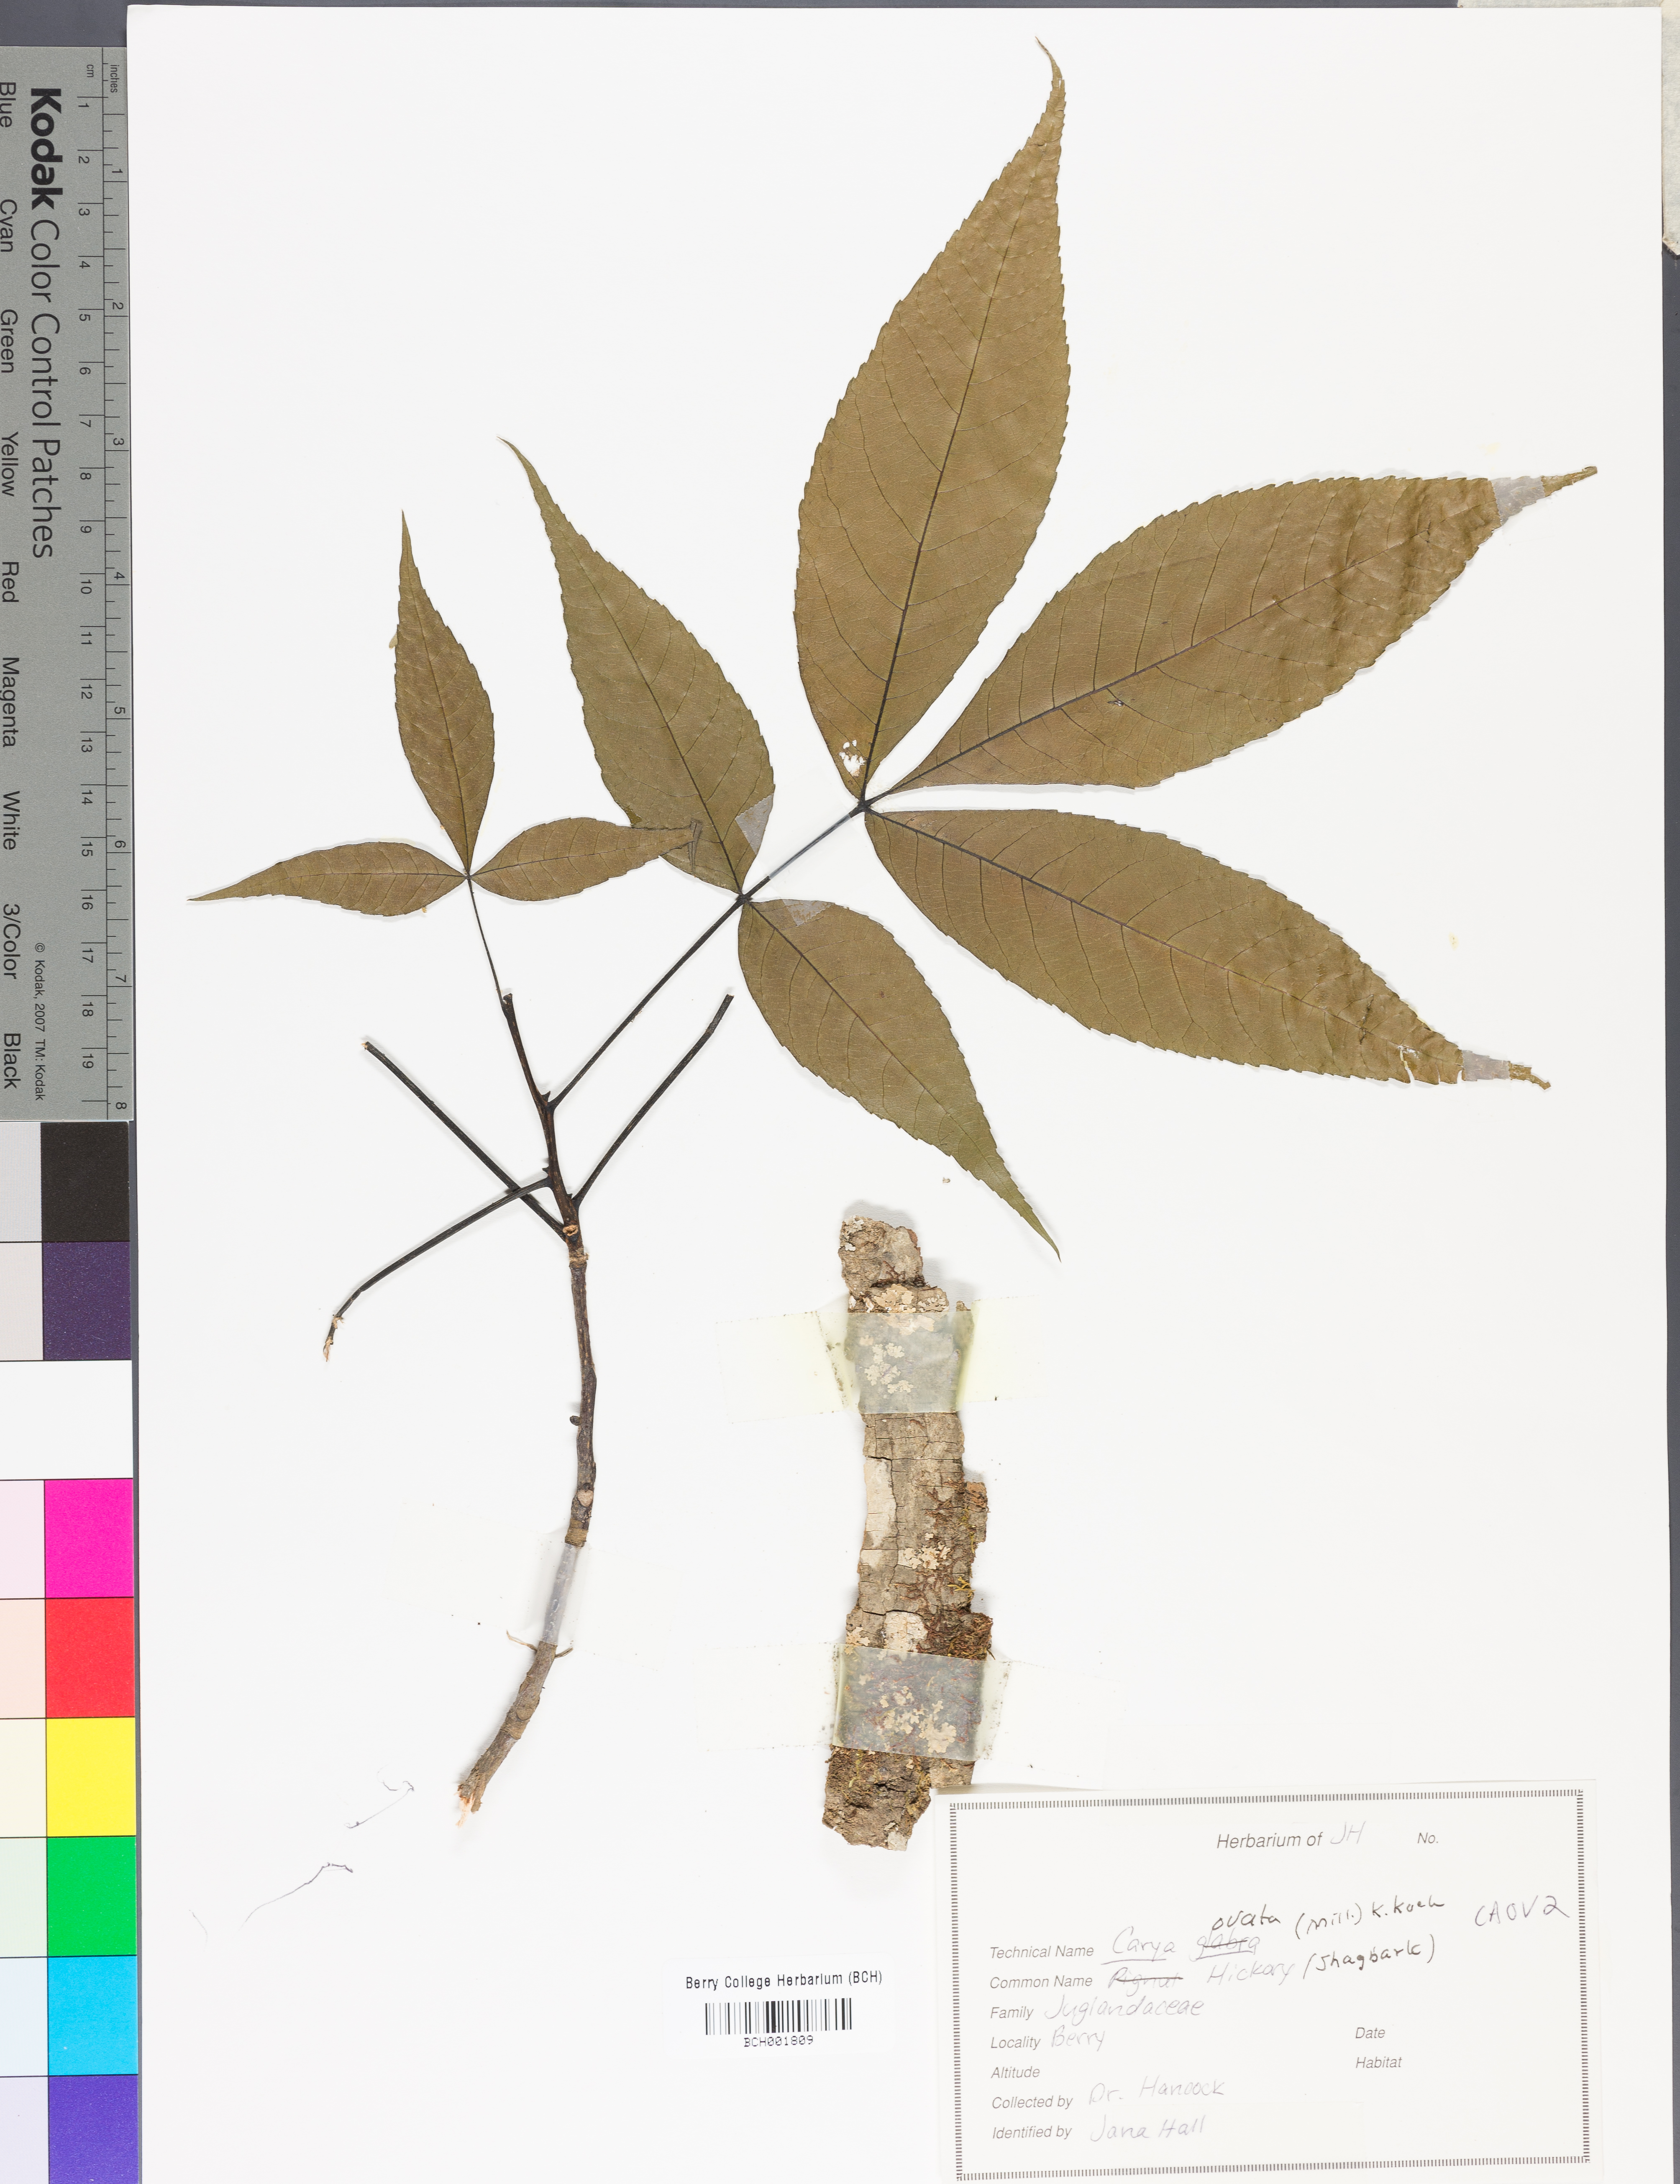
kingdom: Plantae
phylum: Tracheophyta
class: Magnoliopsida
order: Fagales
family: Juglandaceae
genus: Carya
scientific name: Carya ovata
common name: Shagbark hickory
